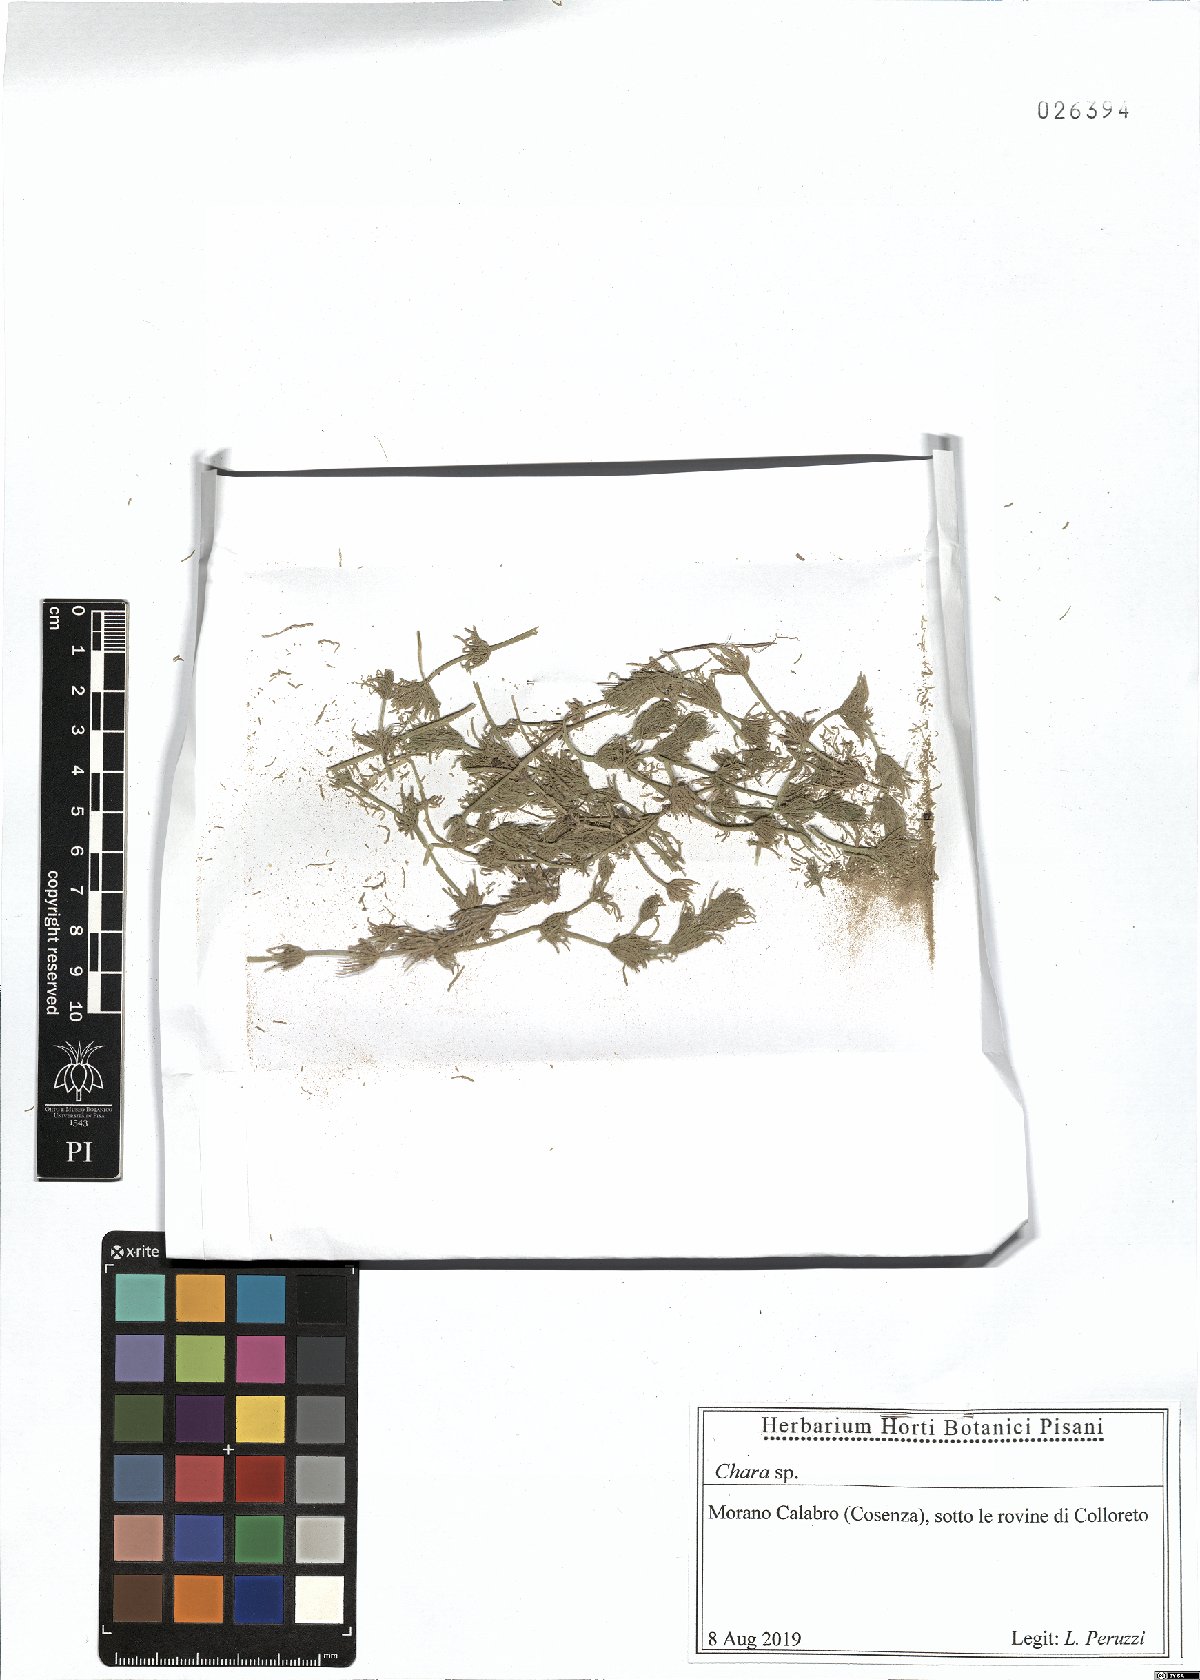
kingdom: Plantae
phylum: Charophyta
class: Charophyceae
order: Charales
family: Characeae
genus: Chara
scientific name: Chara
